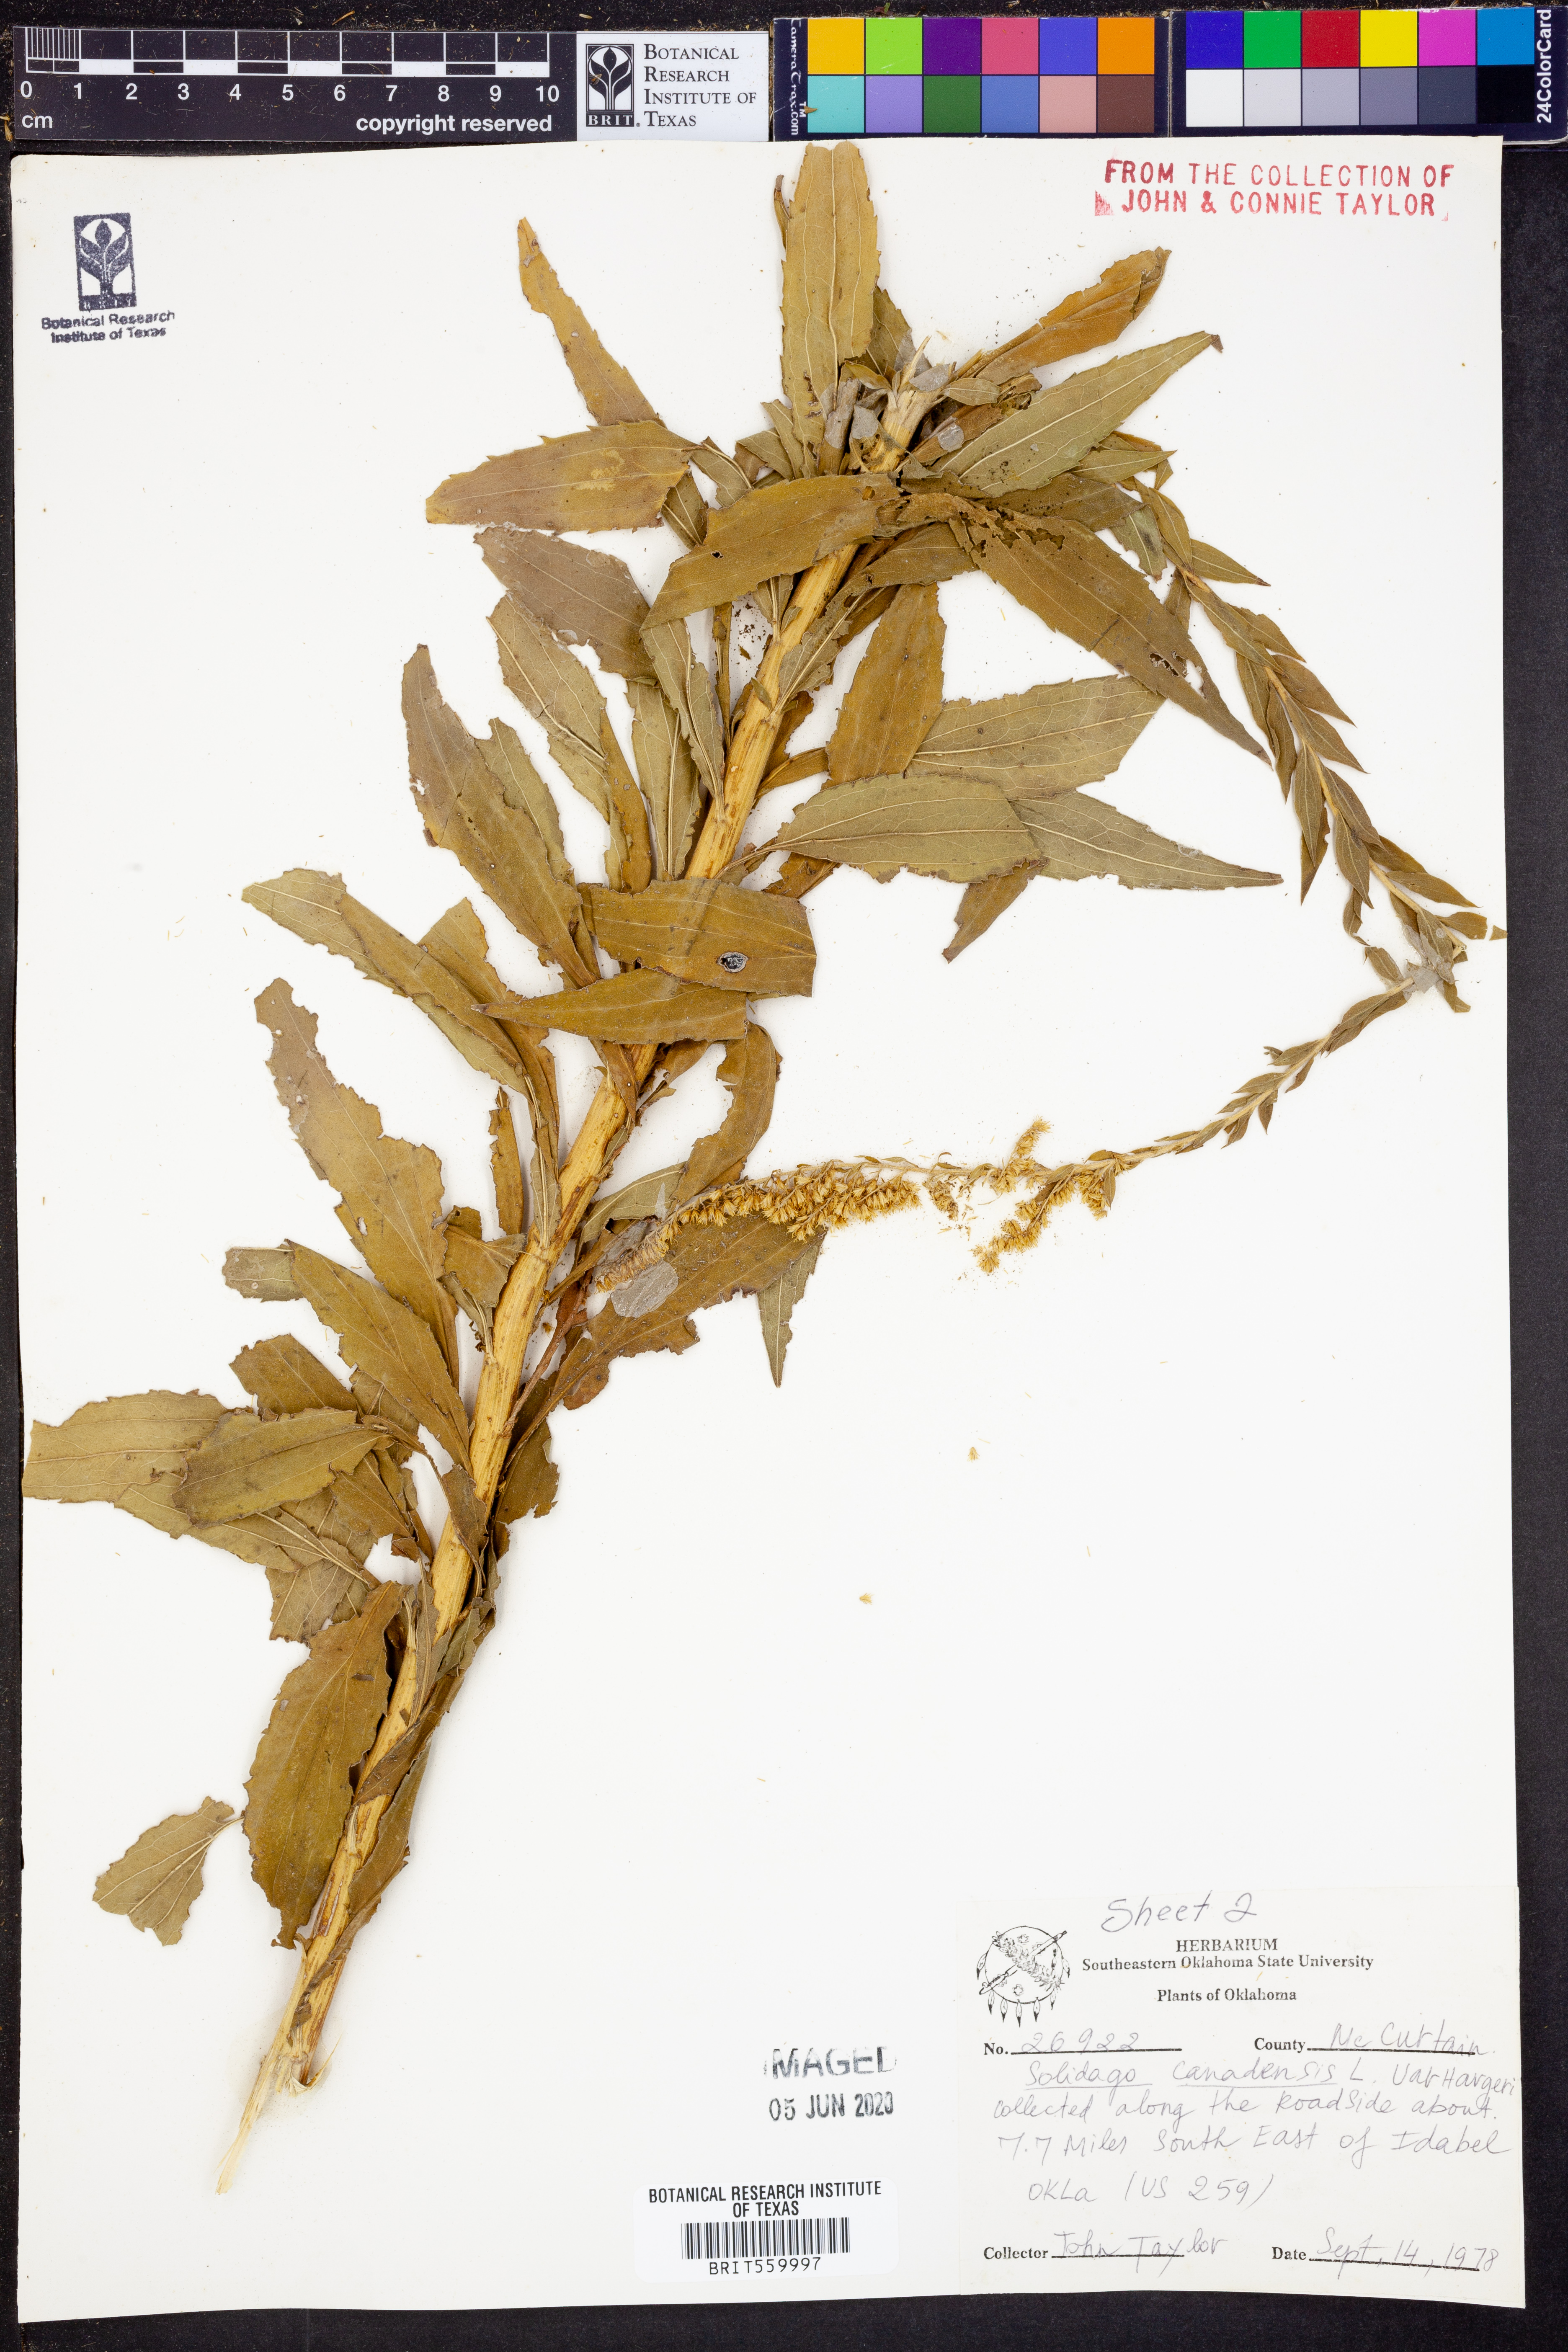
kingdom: Plantae
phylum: Tracheophyta
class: Magnoliopsida
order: Asterales
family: Asteraceae
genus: Solidago
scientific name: Solidago canadensis
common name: Canada goldenrod
